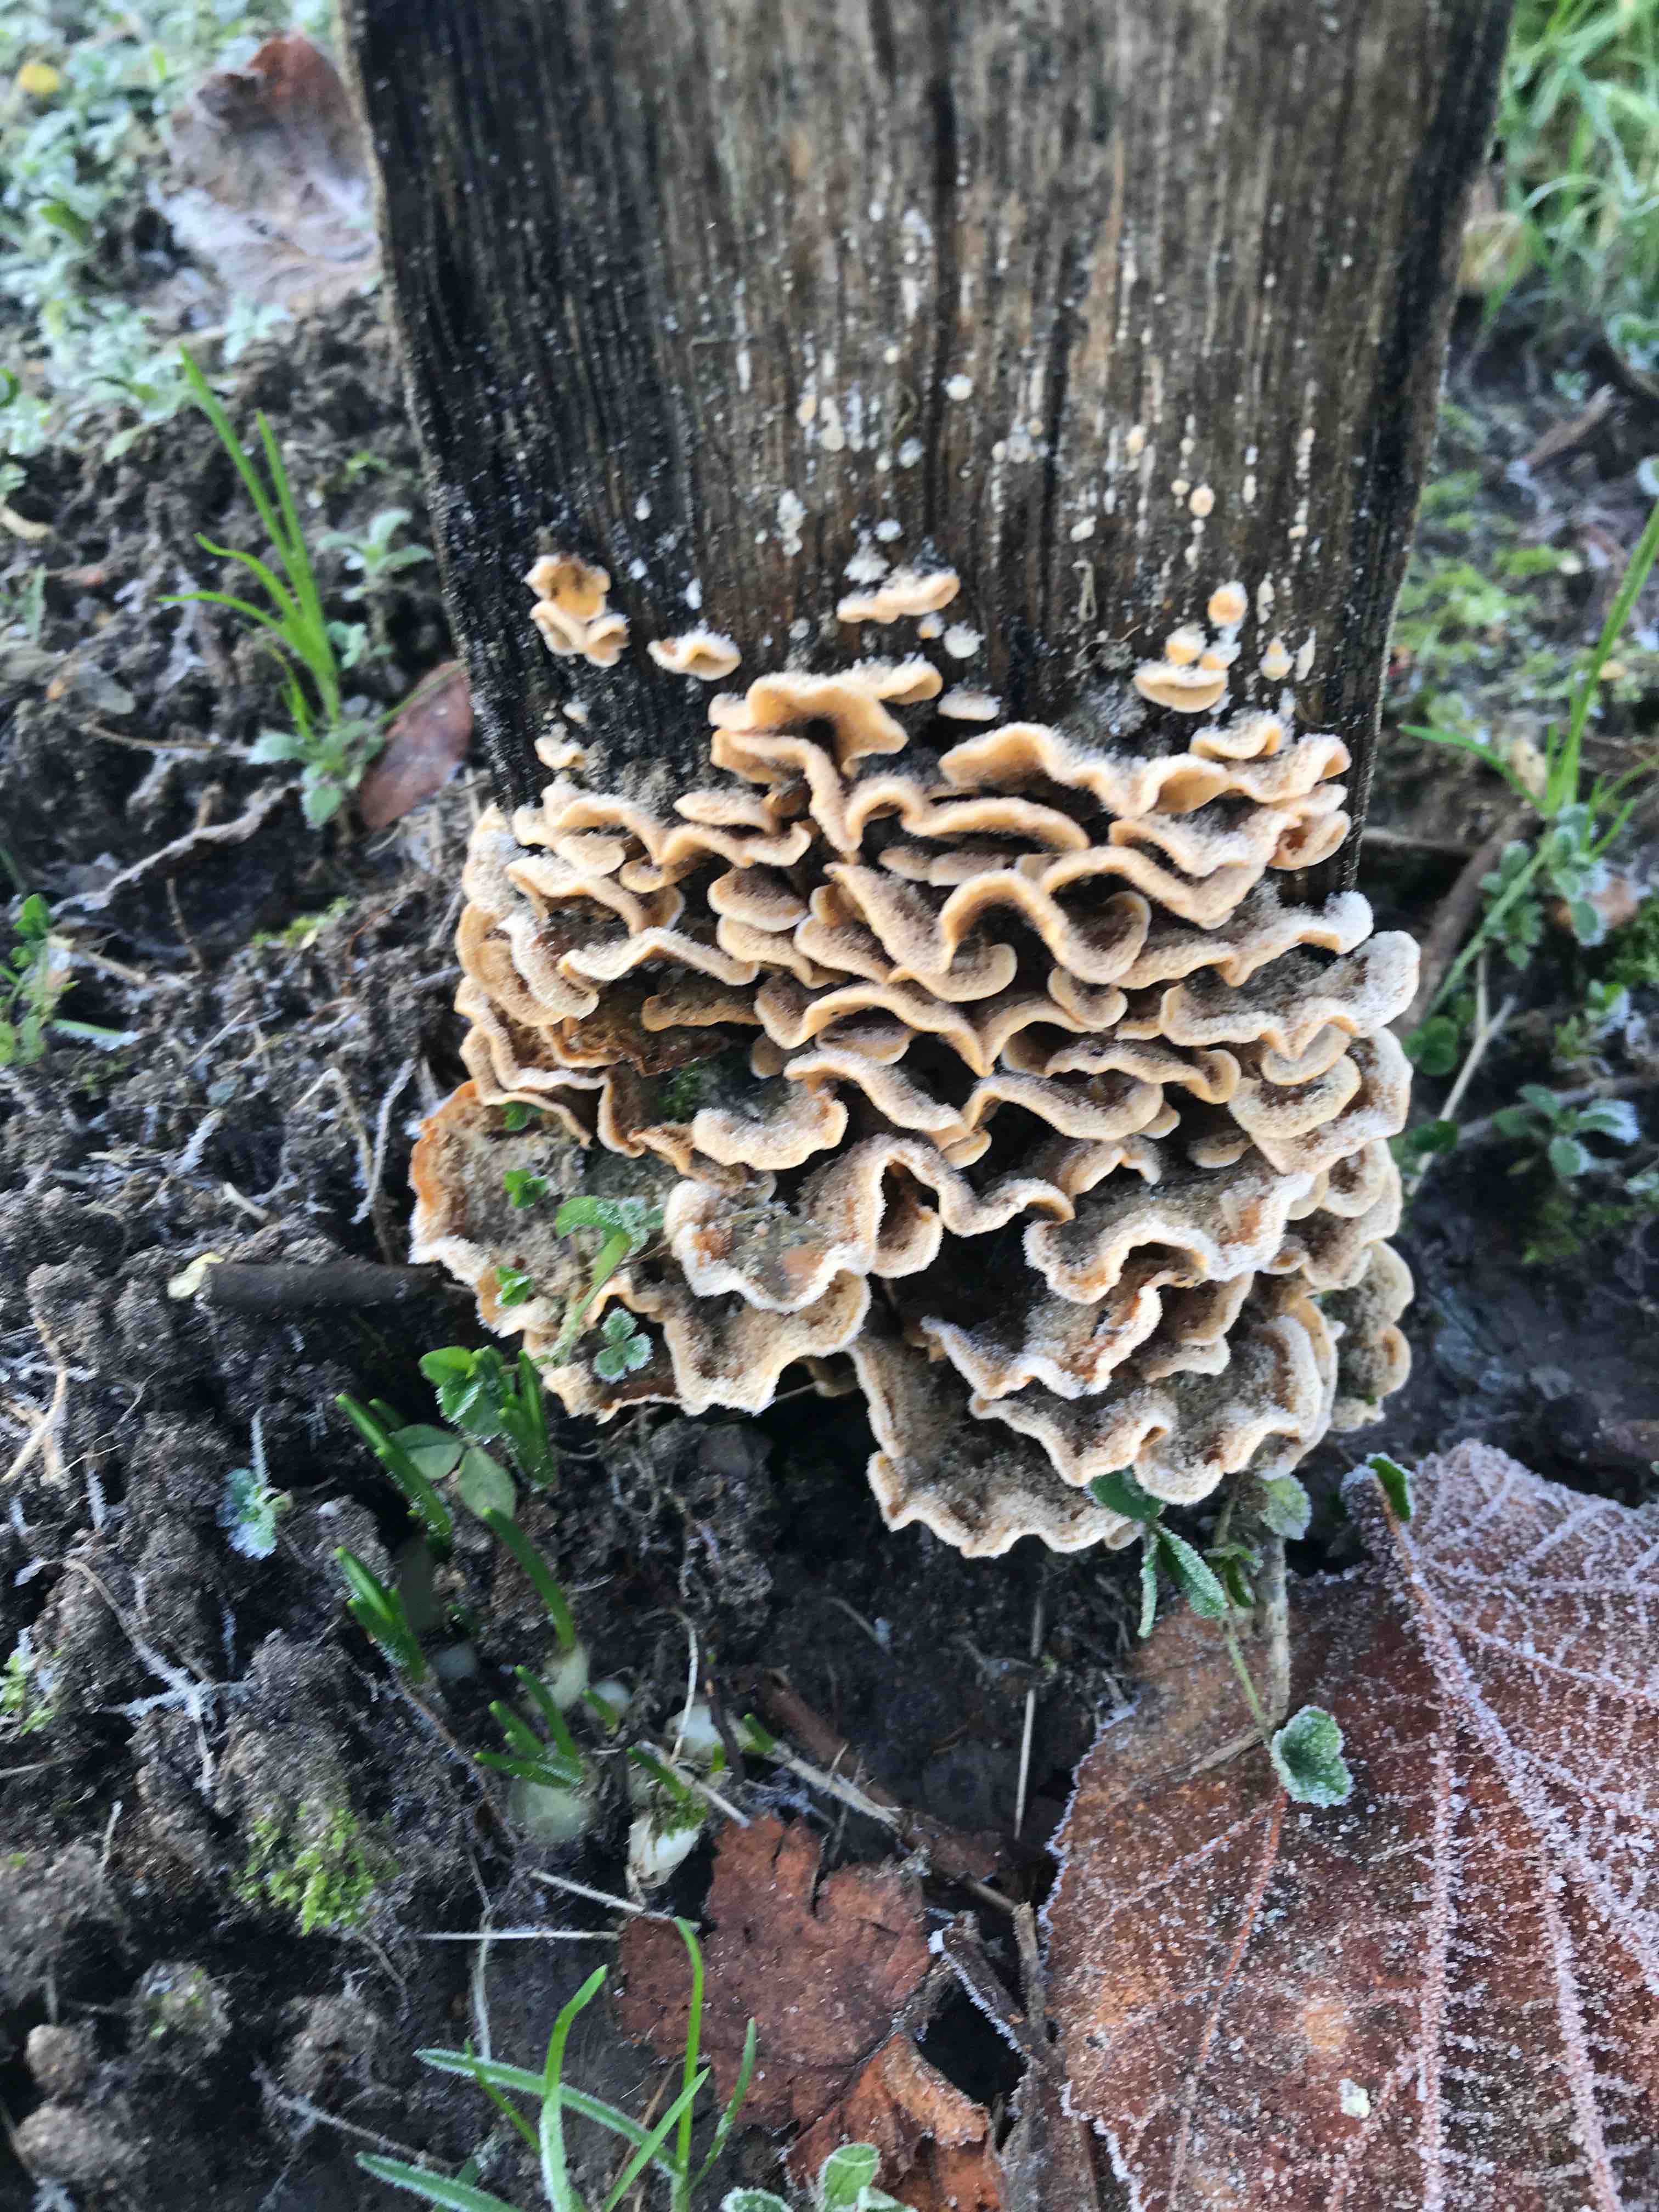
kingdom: Fungi
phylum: Basidiomycota
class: Agaricomycetes
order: Russulales
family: Stereaceae
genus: Stereum
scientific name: Stereum hirsutum
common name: håret lædersvamp
